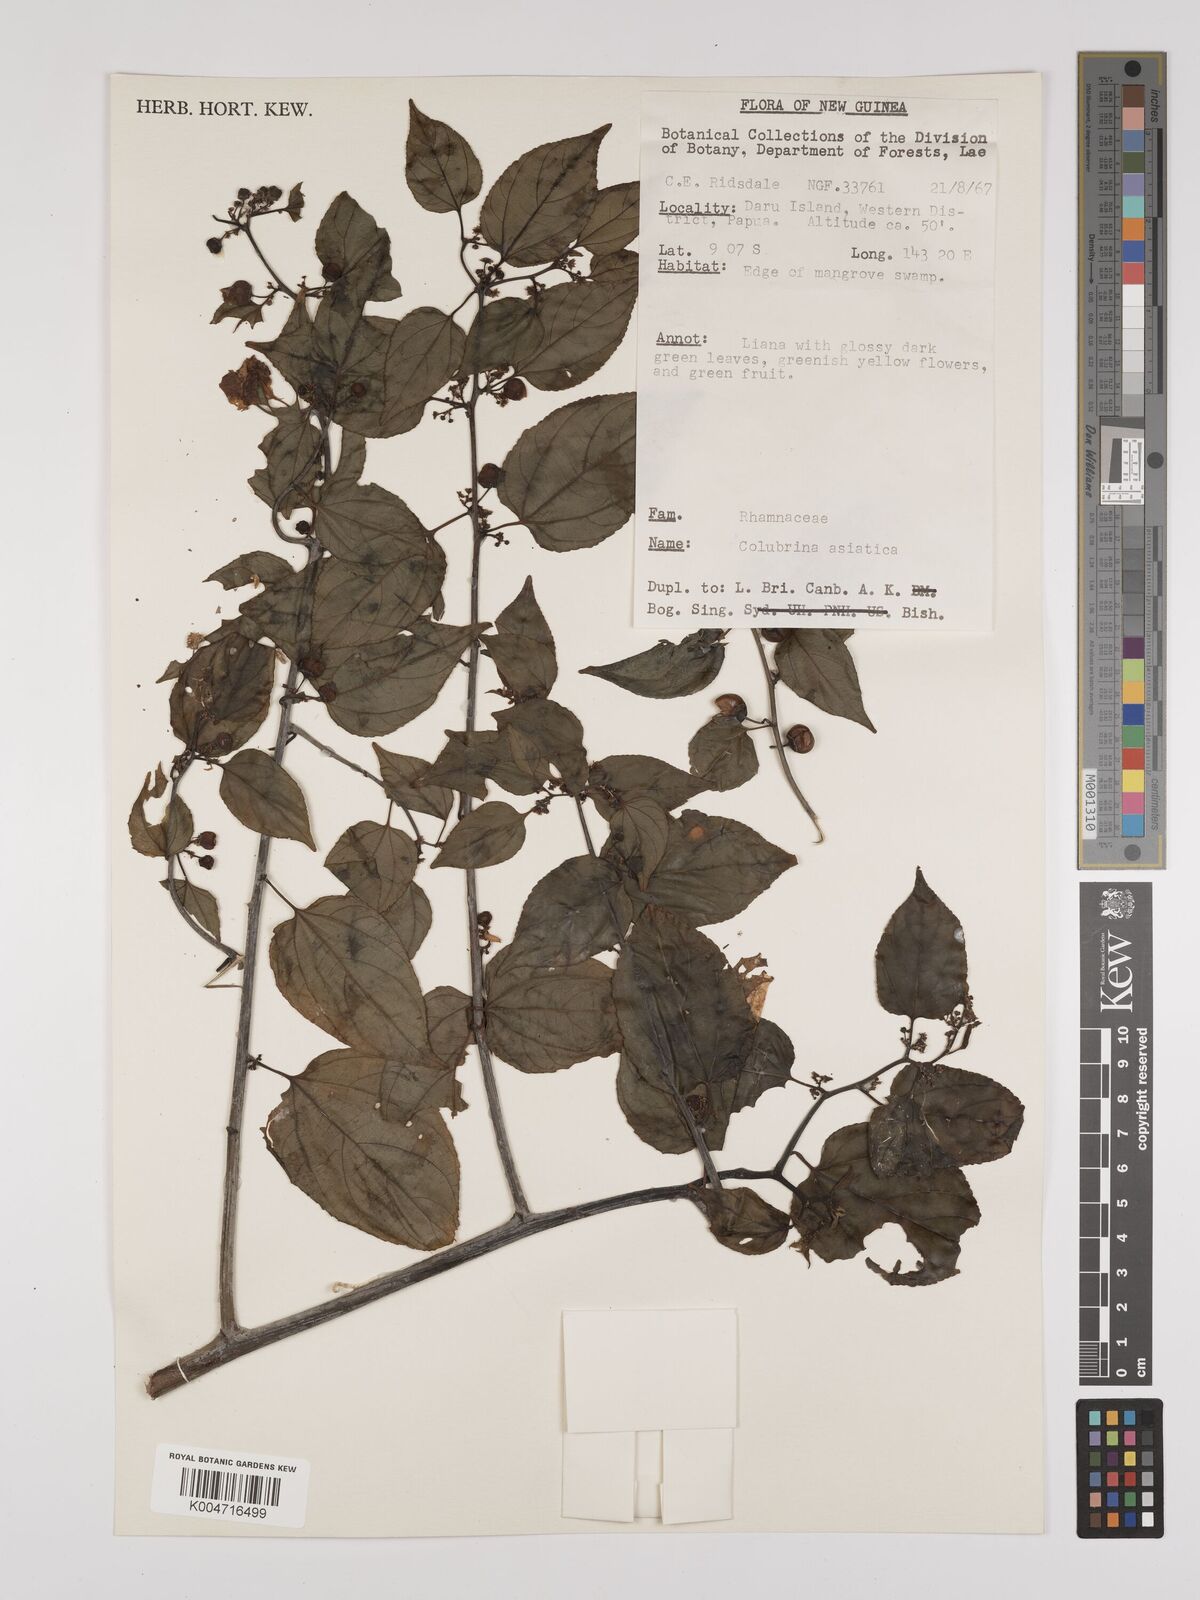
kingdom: Plantae
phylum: Tracheophyta
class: Magnoliopsida
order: Rosales
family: Rhamnaceae
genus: Colubrina
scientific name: Colubrina asiatica
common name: Asian nakedwood
